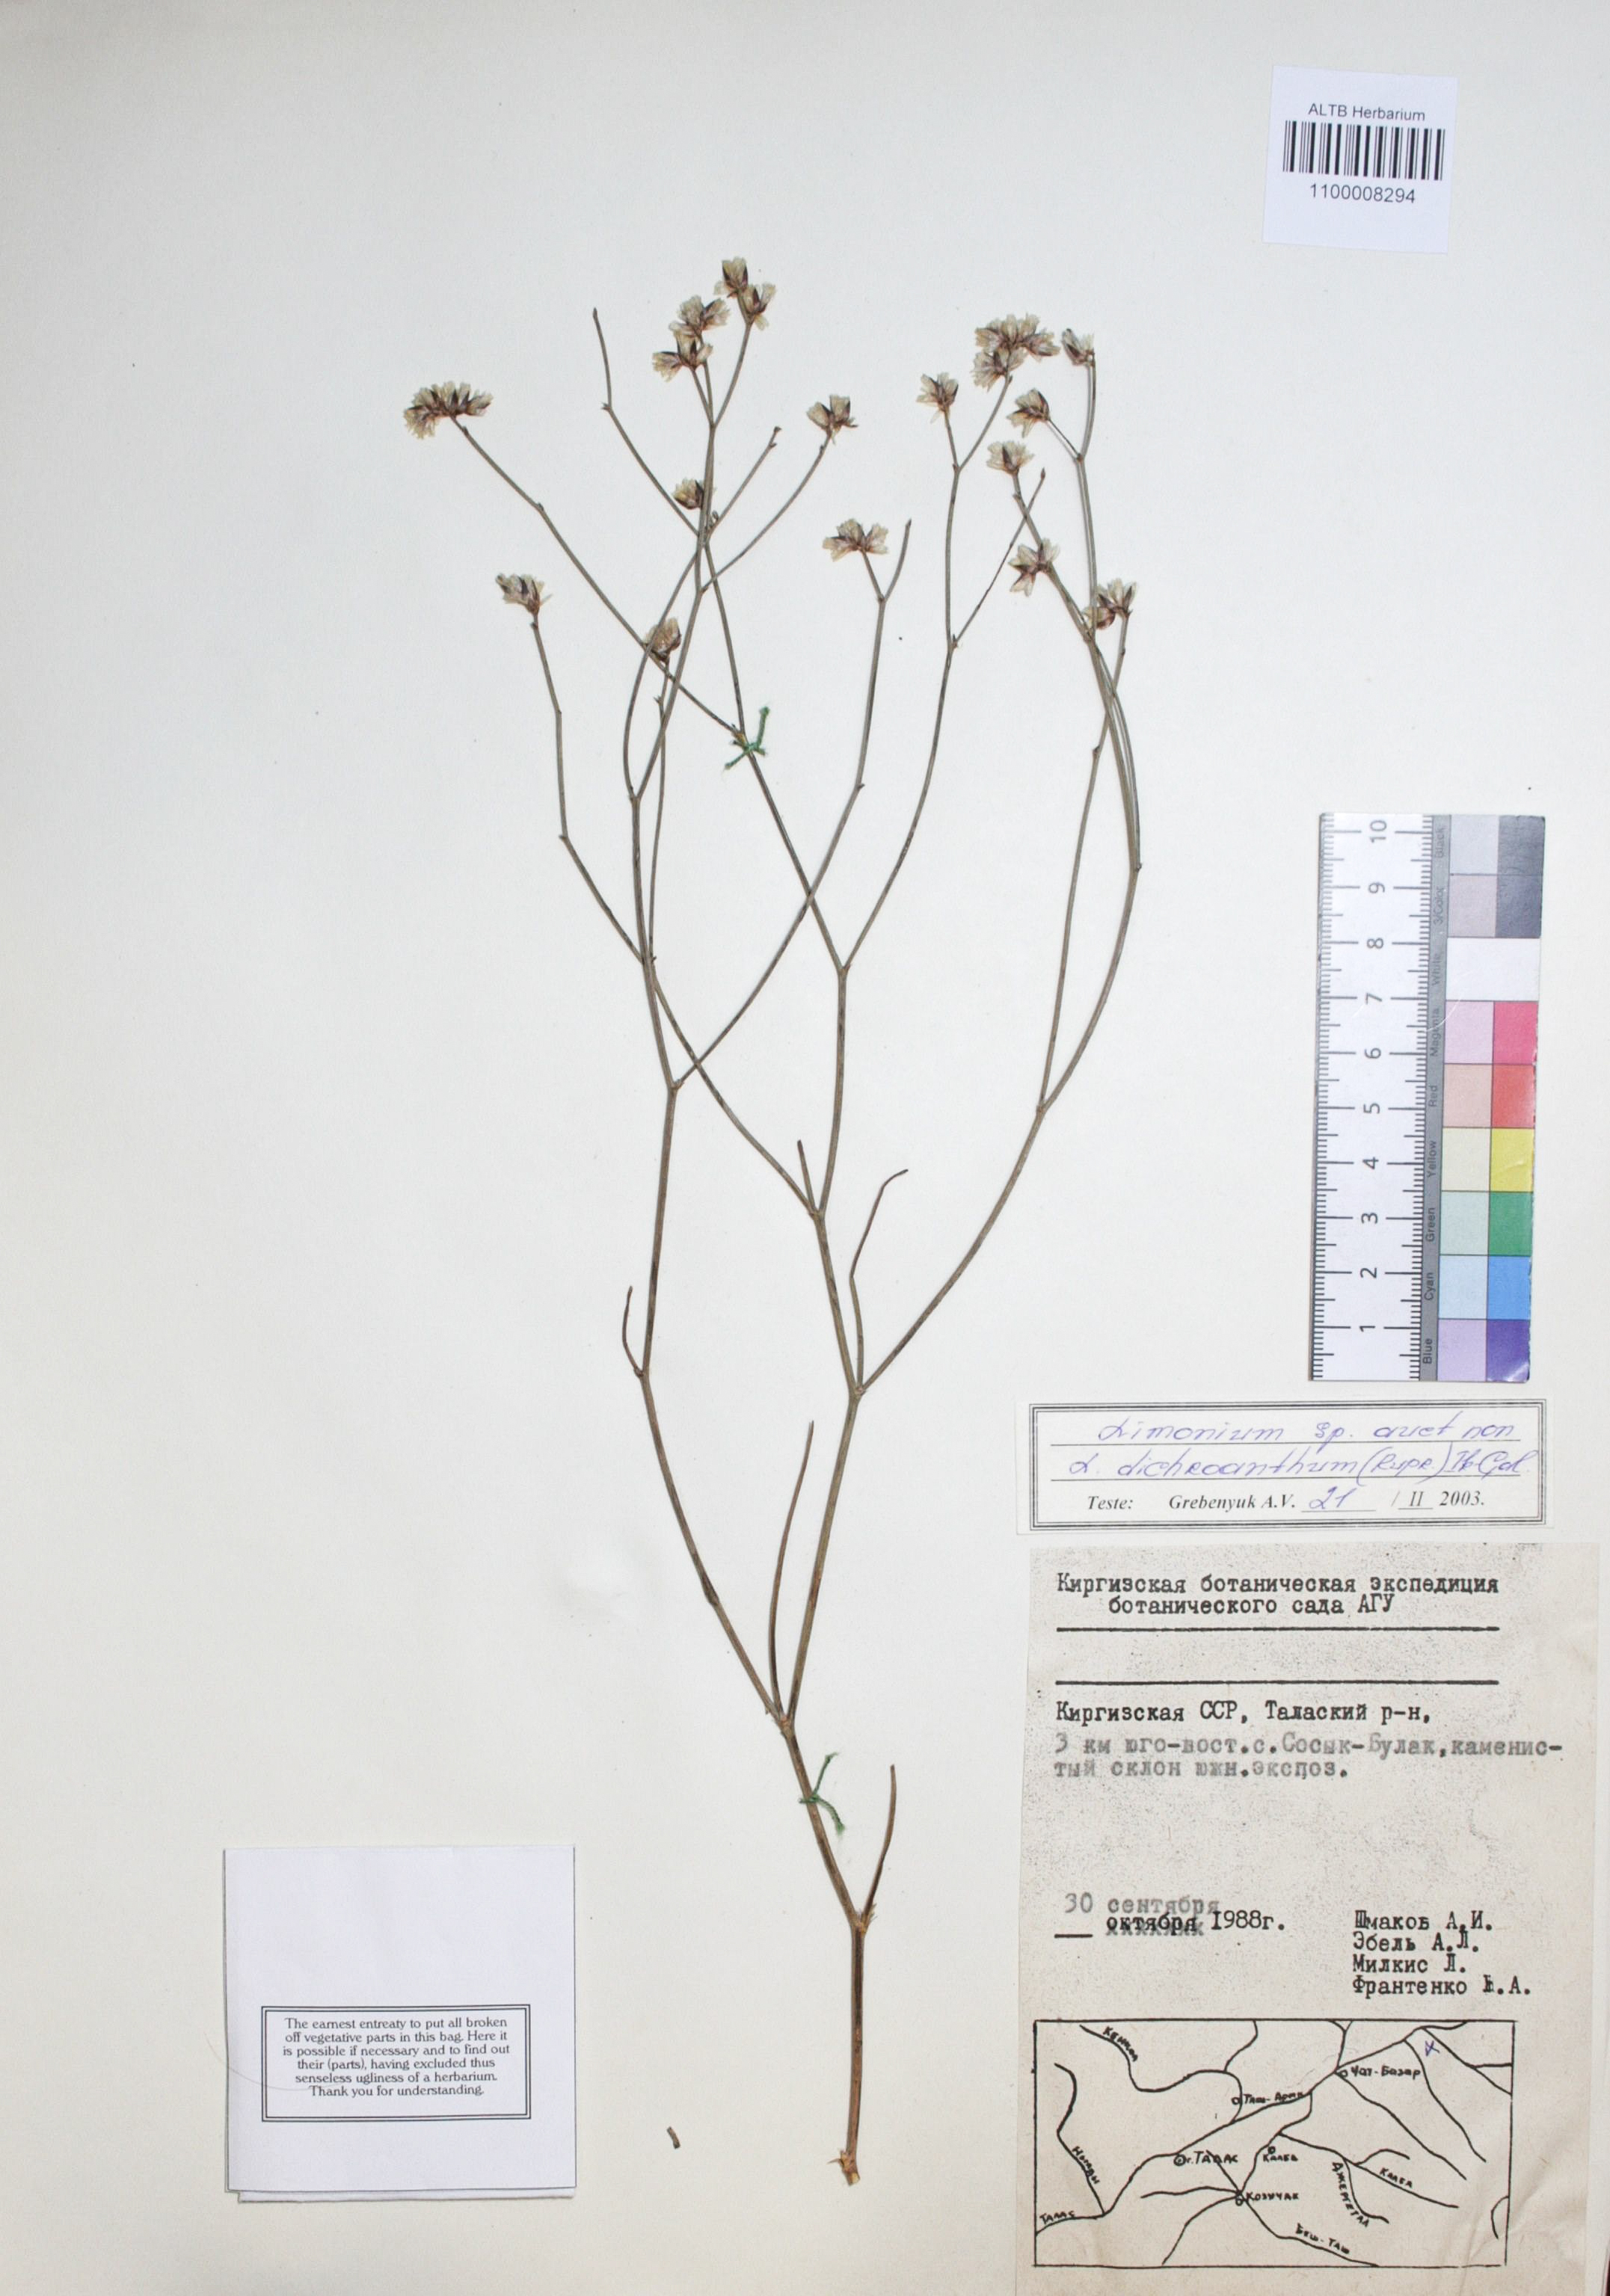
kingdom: Plantae
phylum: Tracheophyta
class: Magnoliopsida
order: Caryophyllales
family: Plumbaginaceae
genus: Limonium
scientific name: Limonium dichroanthum
